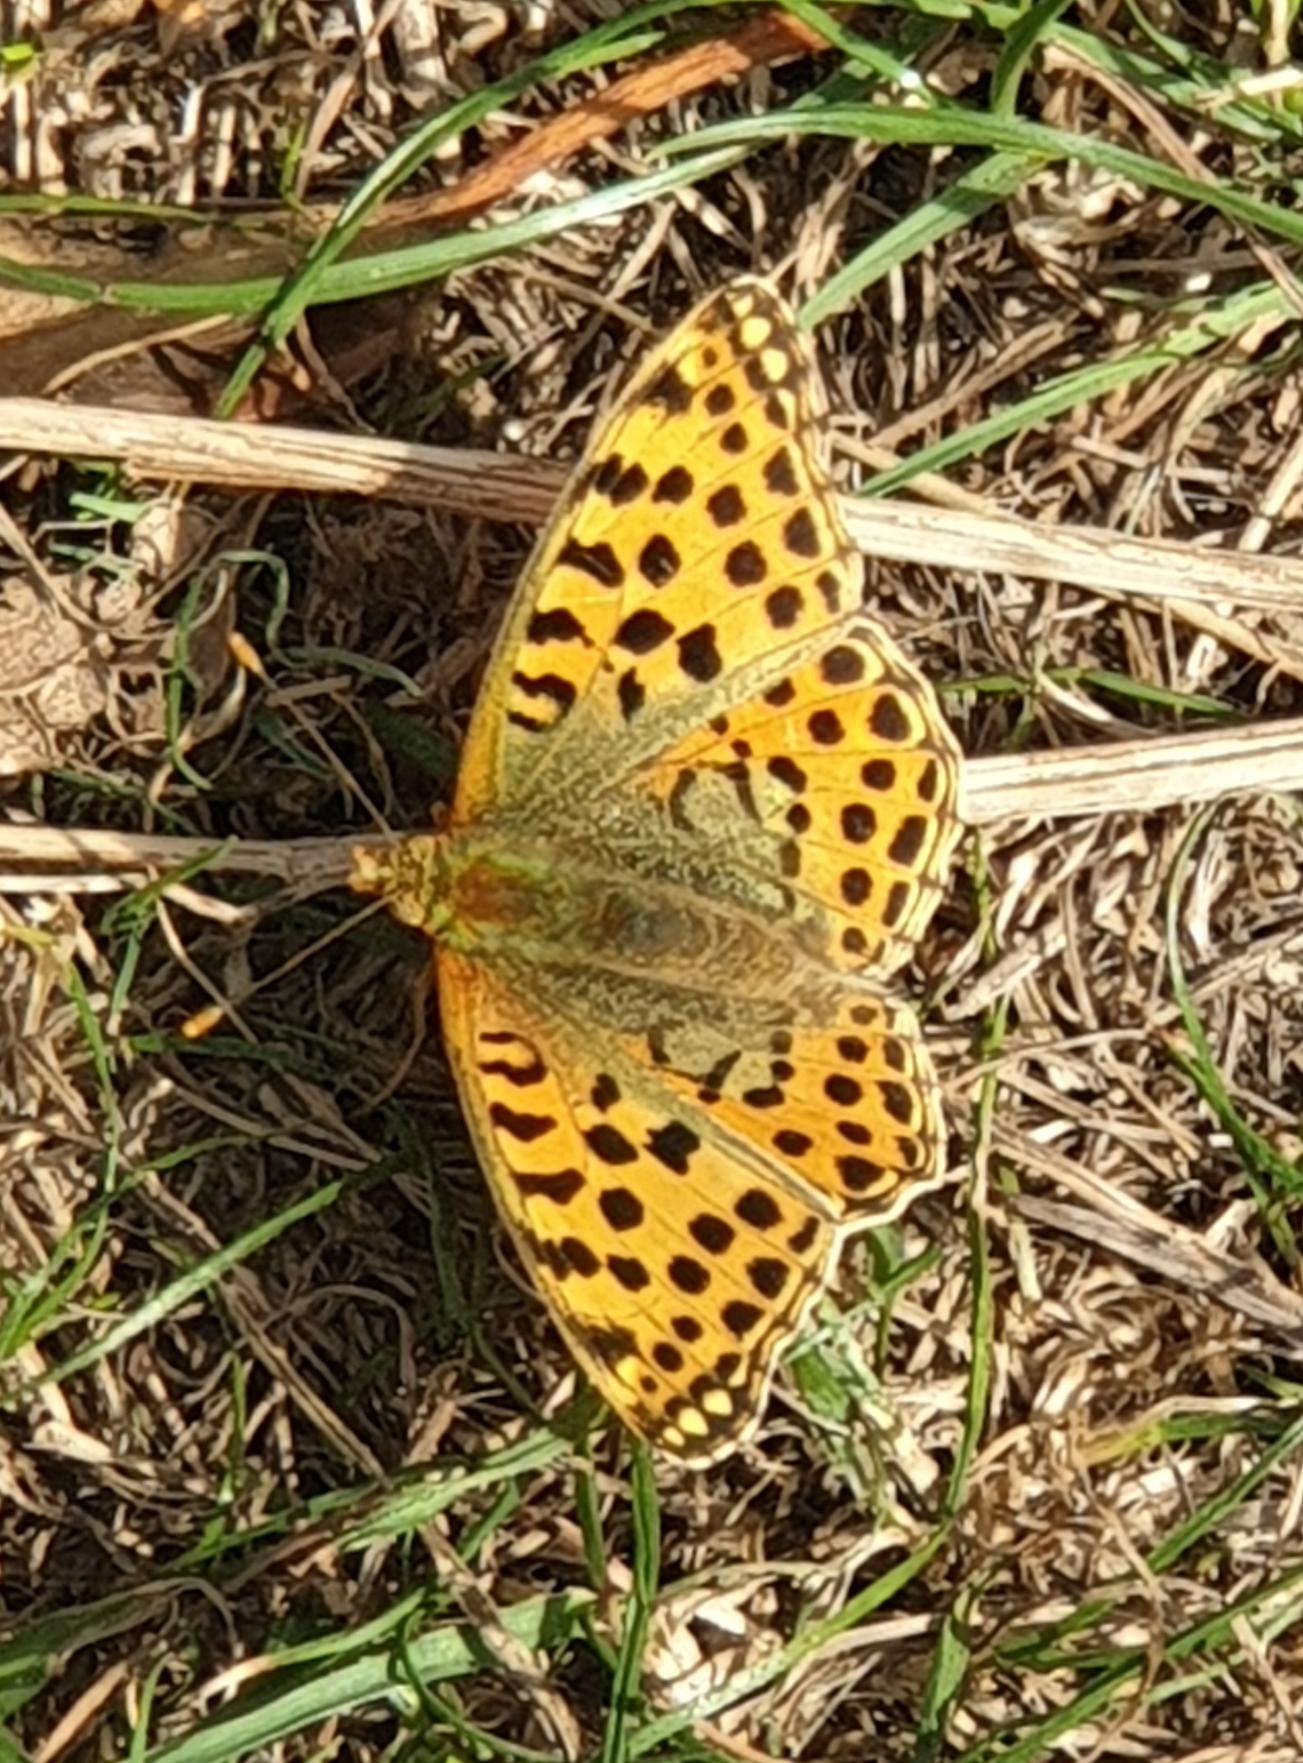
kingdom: Animalia
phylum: Arthropoda
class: Insecta
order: Lepidoptera
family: Nymphalidae
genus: Issoria
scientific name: Issoria lathonia
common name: Storplettet perlemorsommerfugl
